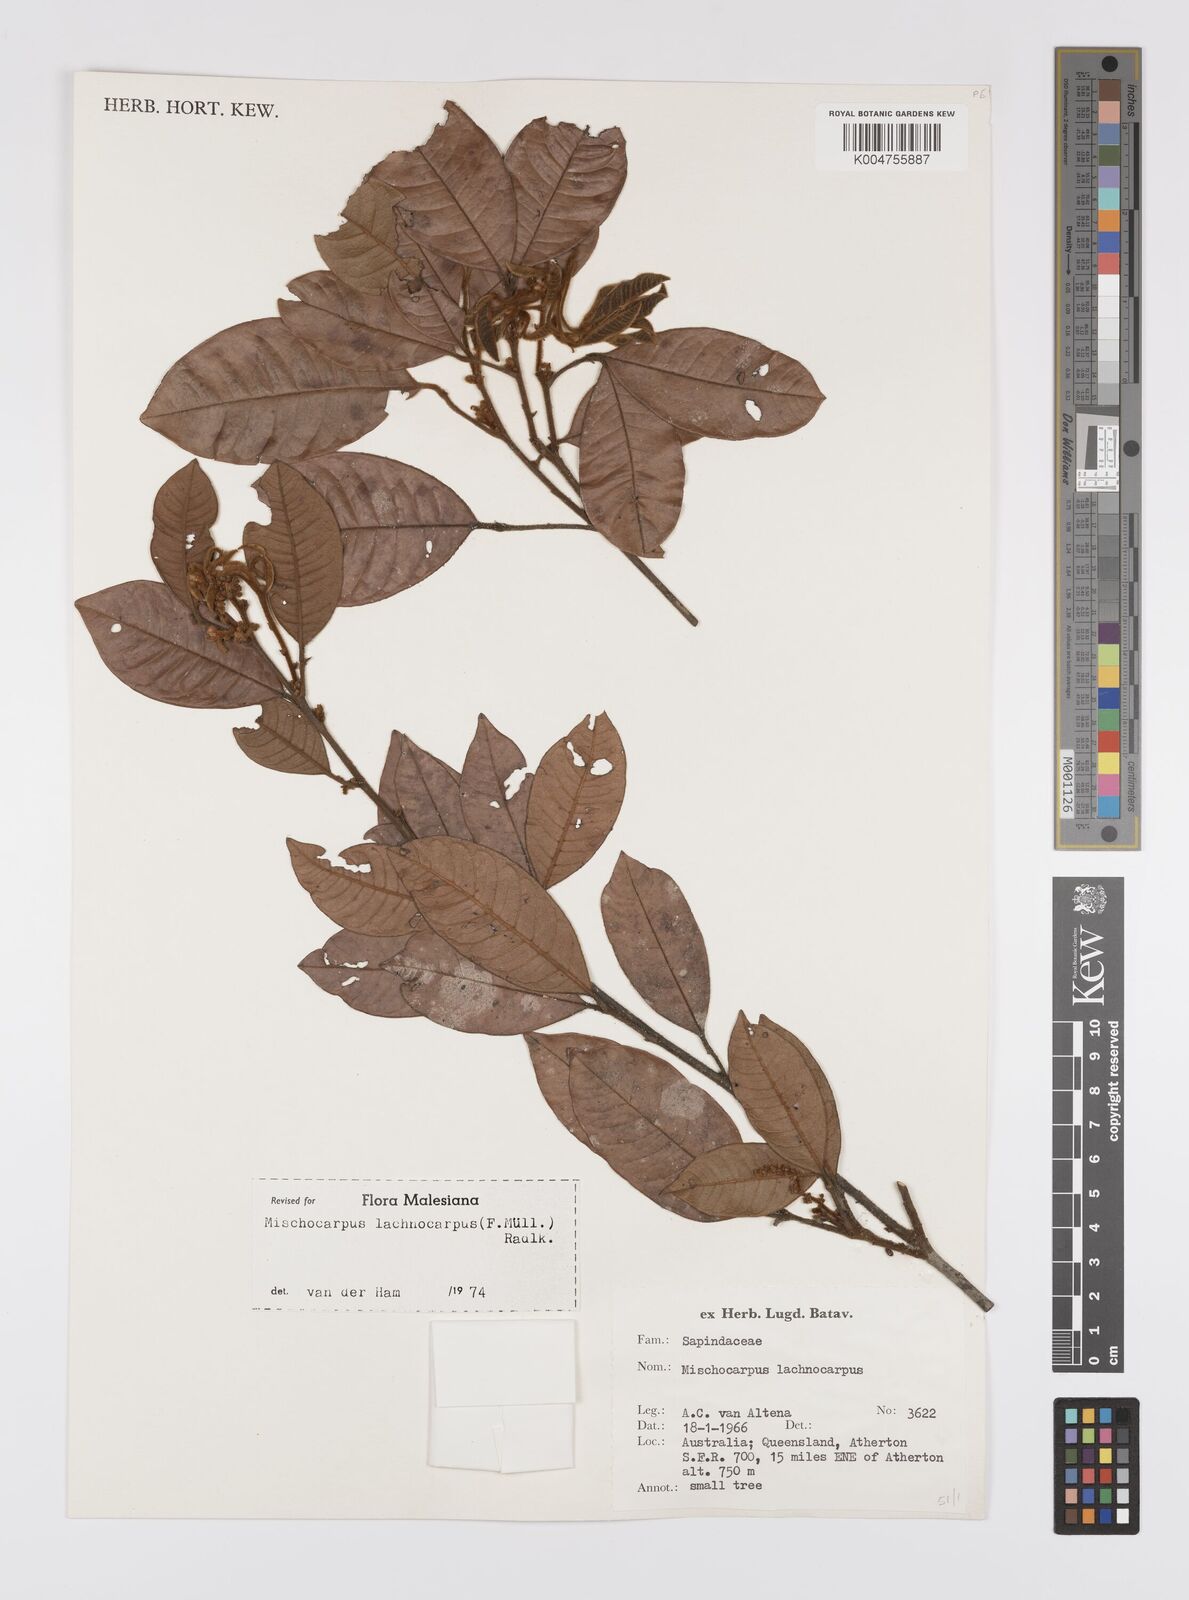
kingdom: Plantae
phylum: Tracheophyta
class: Magnoliopsida
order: Sapindales
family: Sapindaceae
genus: Mischocarpus
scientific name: Mischocarpus lachnocarpus
